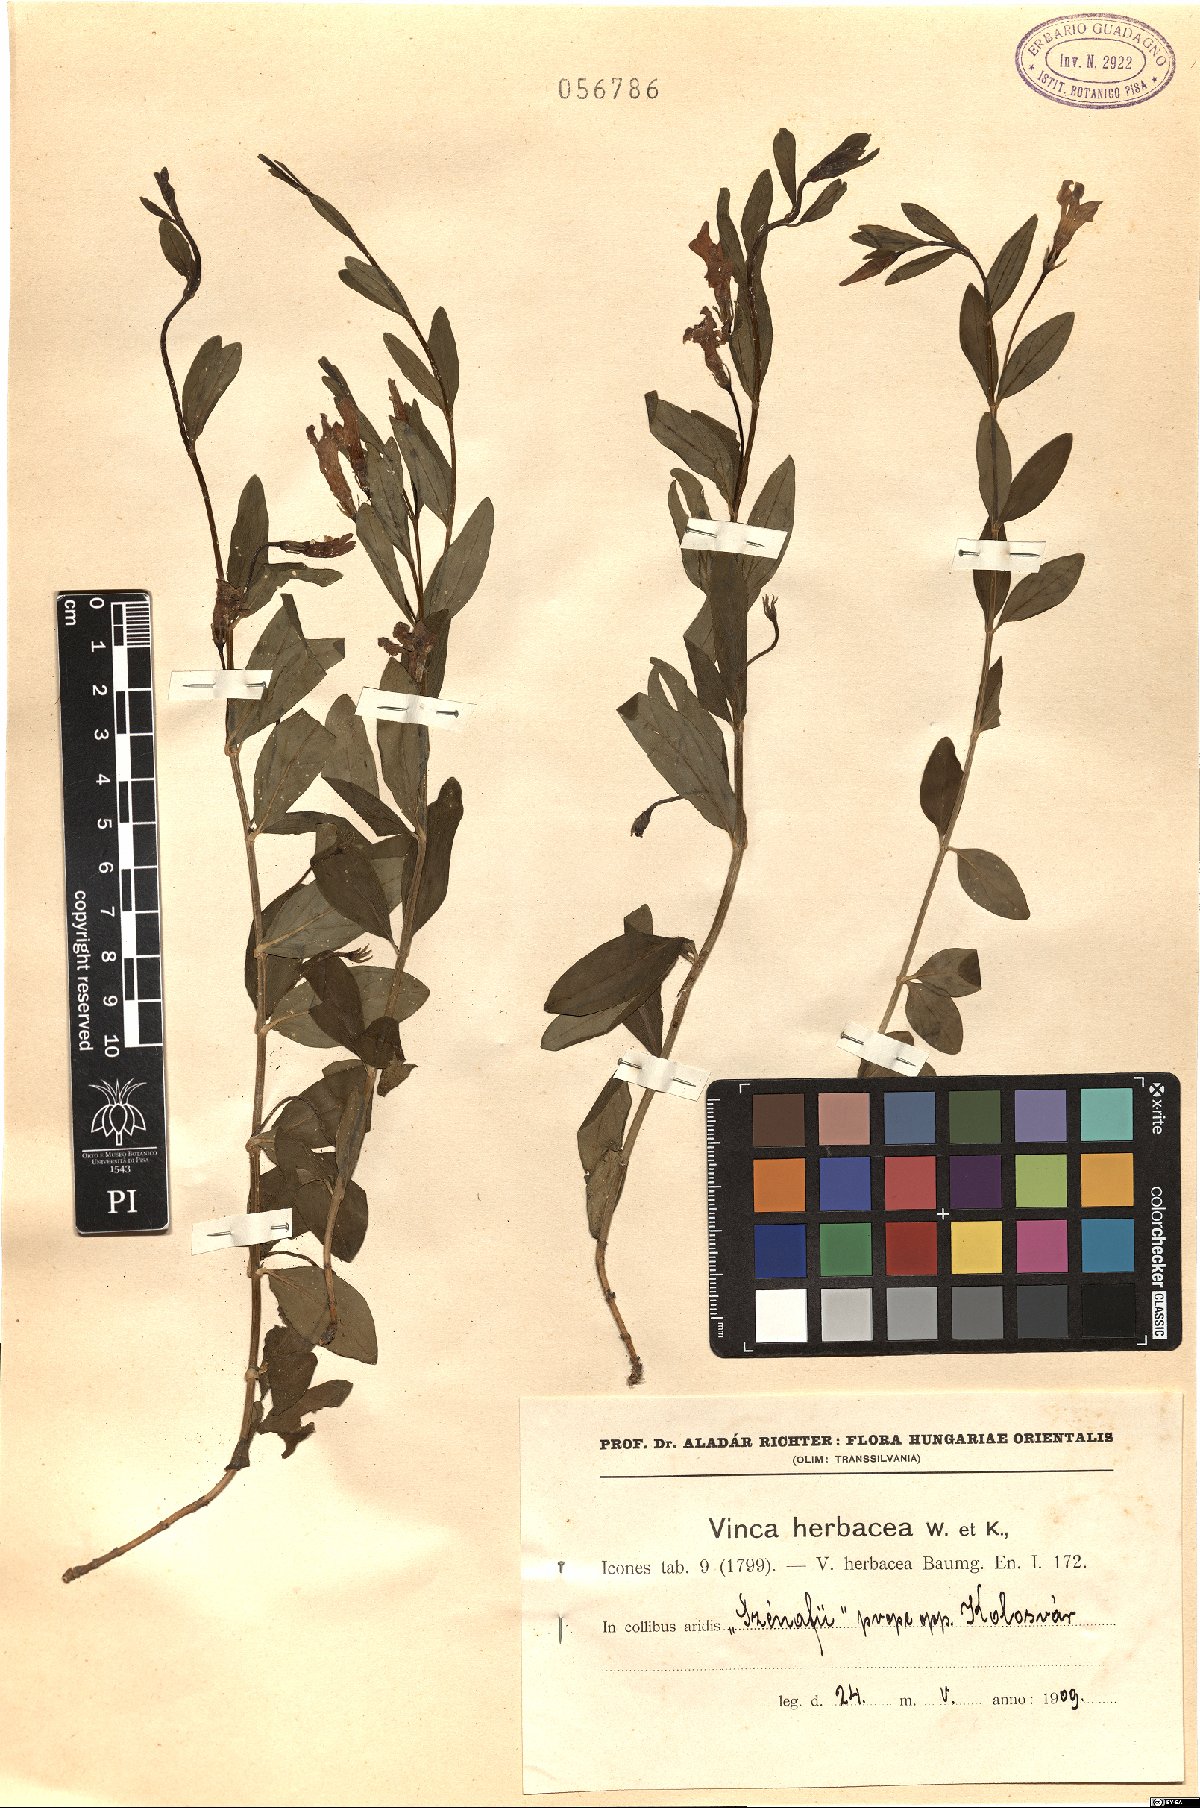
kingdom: Plantae
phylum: Tracheophyta
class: Magnoliopsida
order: Gentianales
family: Apocynaceae
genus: Vinca
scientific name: Vinca herbacea
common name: Herbaceous periwinkle
